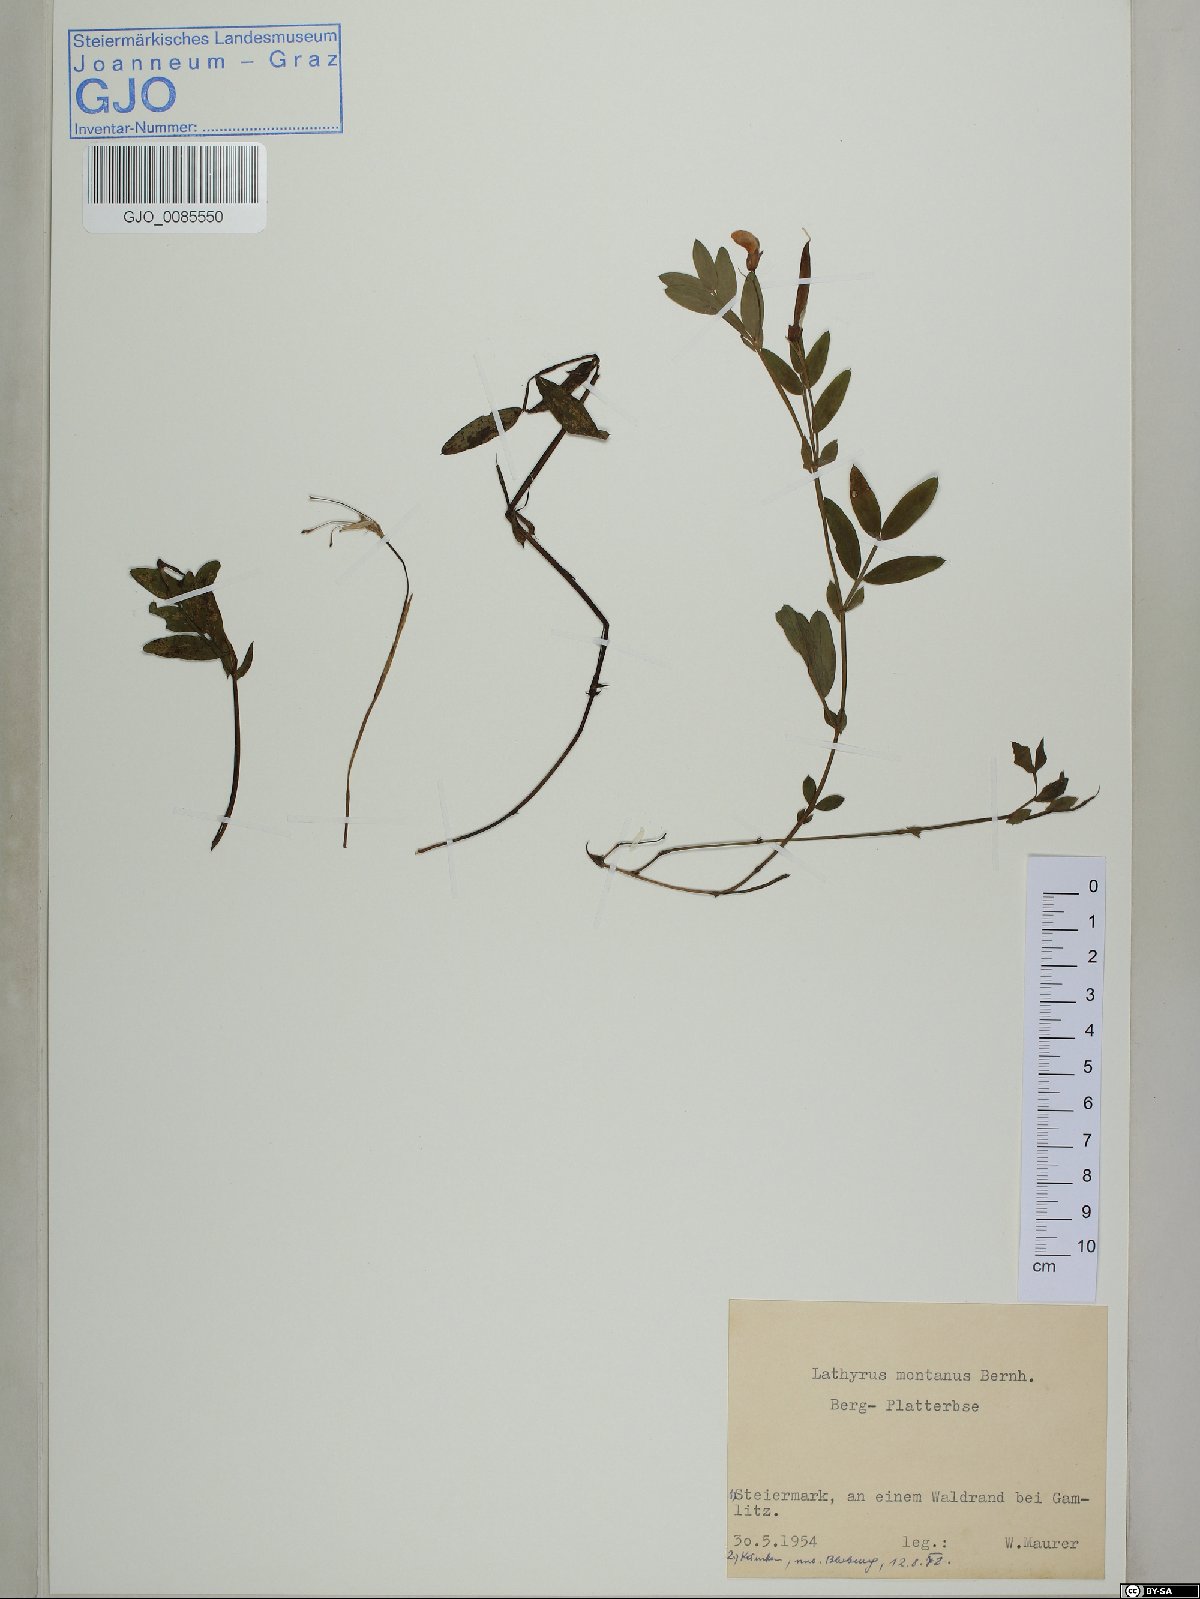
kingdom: Plantae
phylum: Tracheophyta
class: Magnoliopsida
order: Fabales
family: Fabaceae
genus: Lathyrus
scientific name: Lathyrus linifolius
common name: Bitter-vetch
